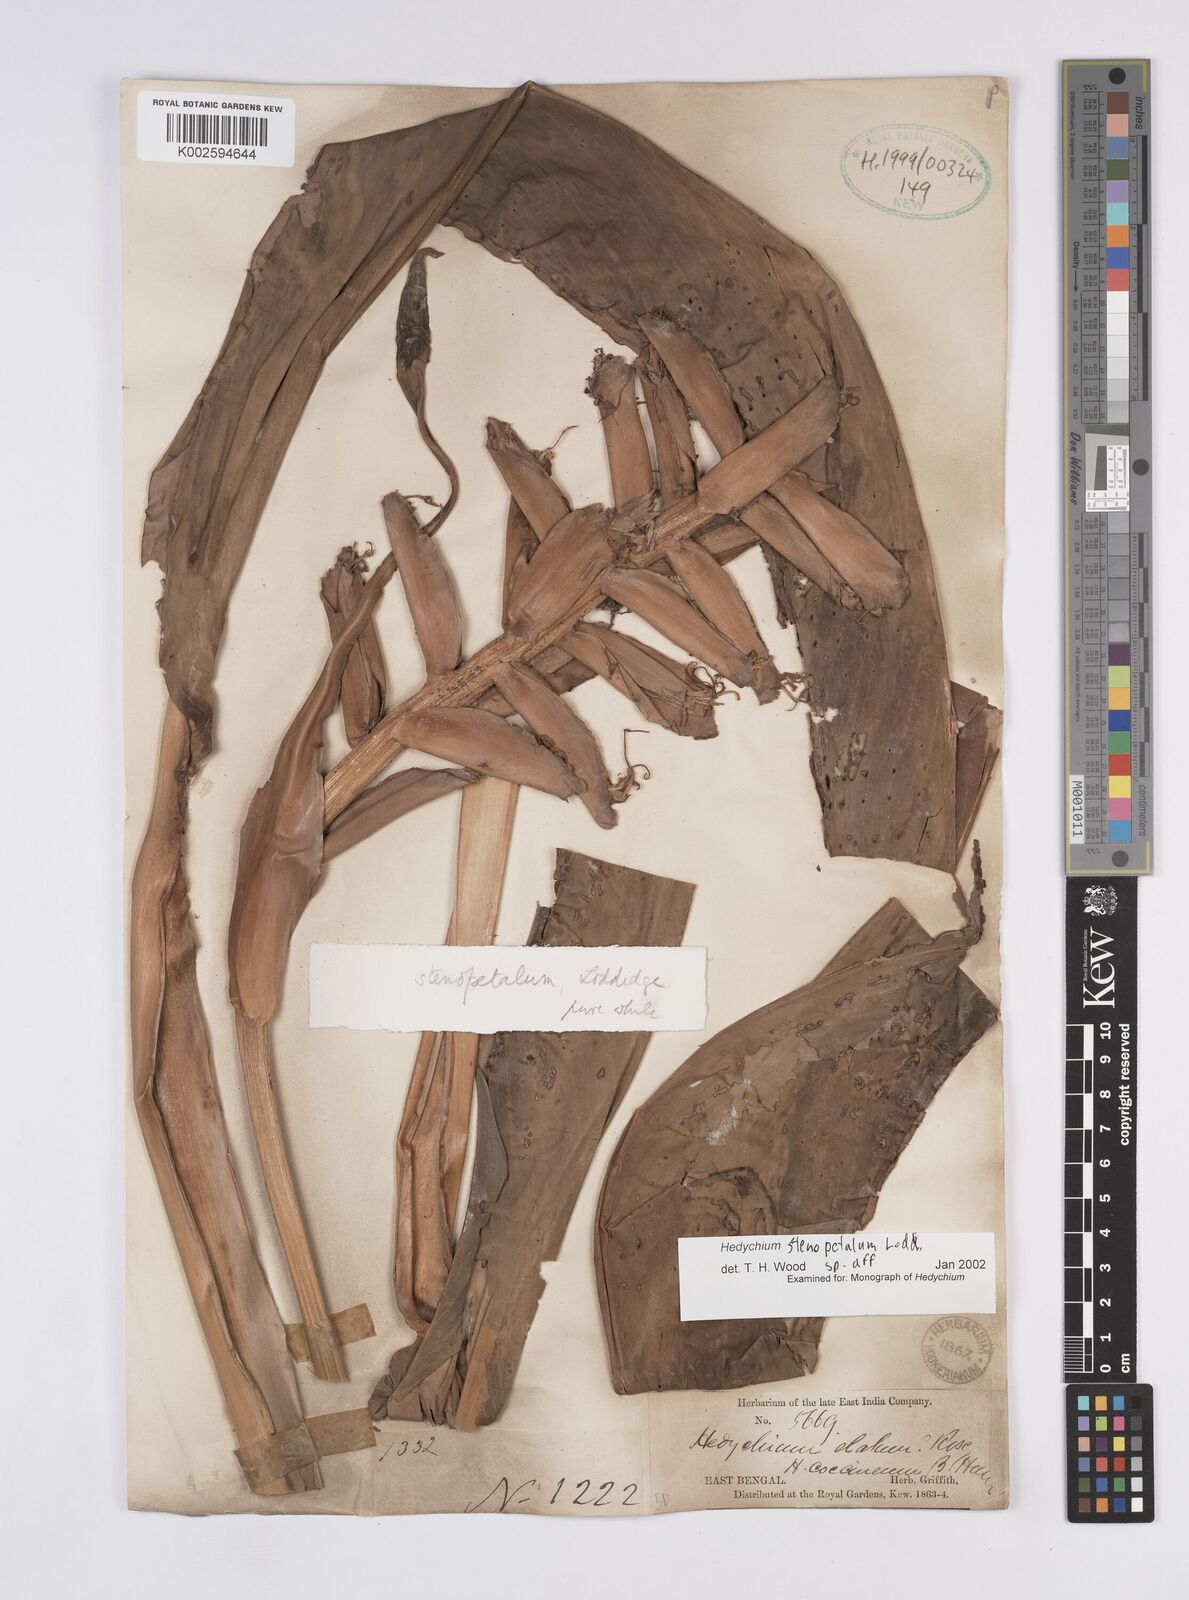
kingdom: Plantae
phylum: Tracheophyta
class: Liliopsida
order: Zingiberales
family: Zingiberaceae
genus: Hedychium
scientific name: Hedychium stenopetalum
